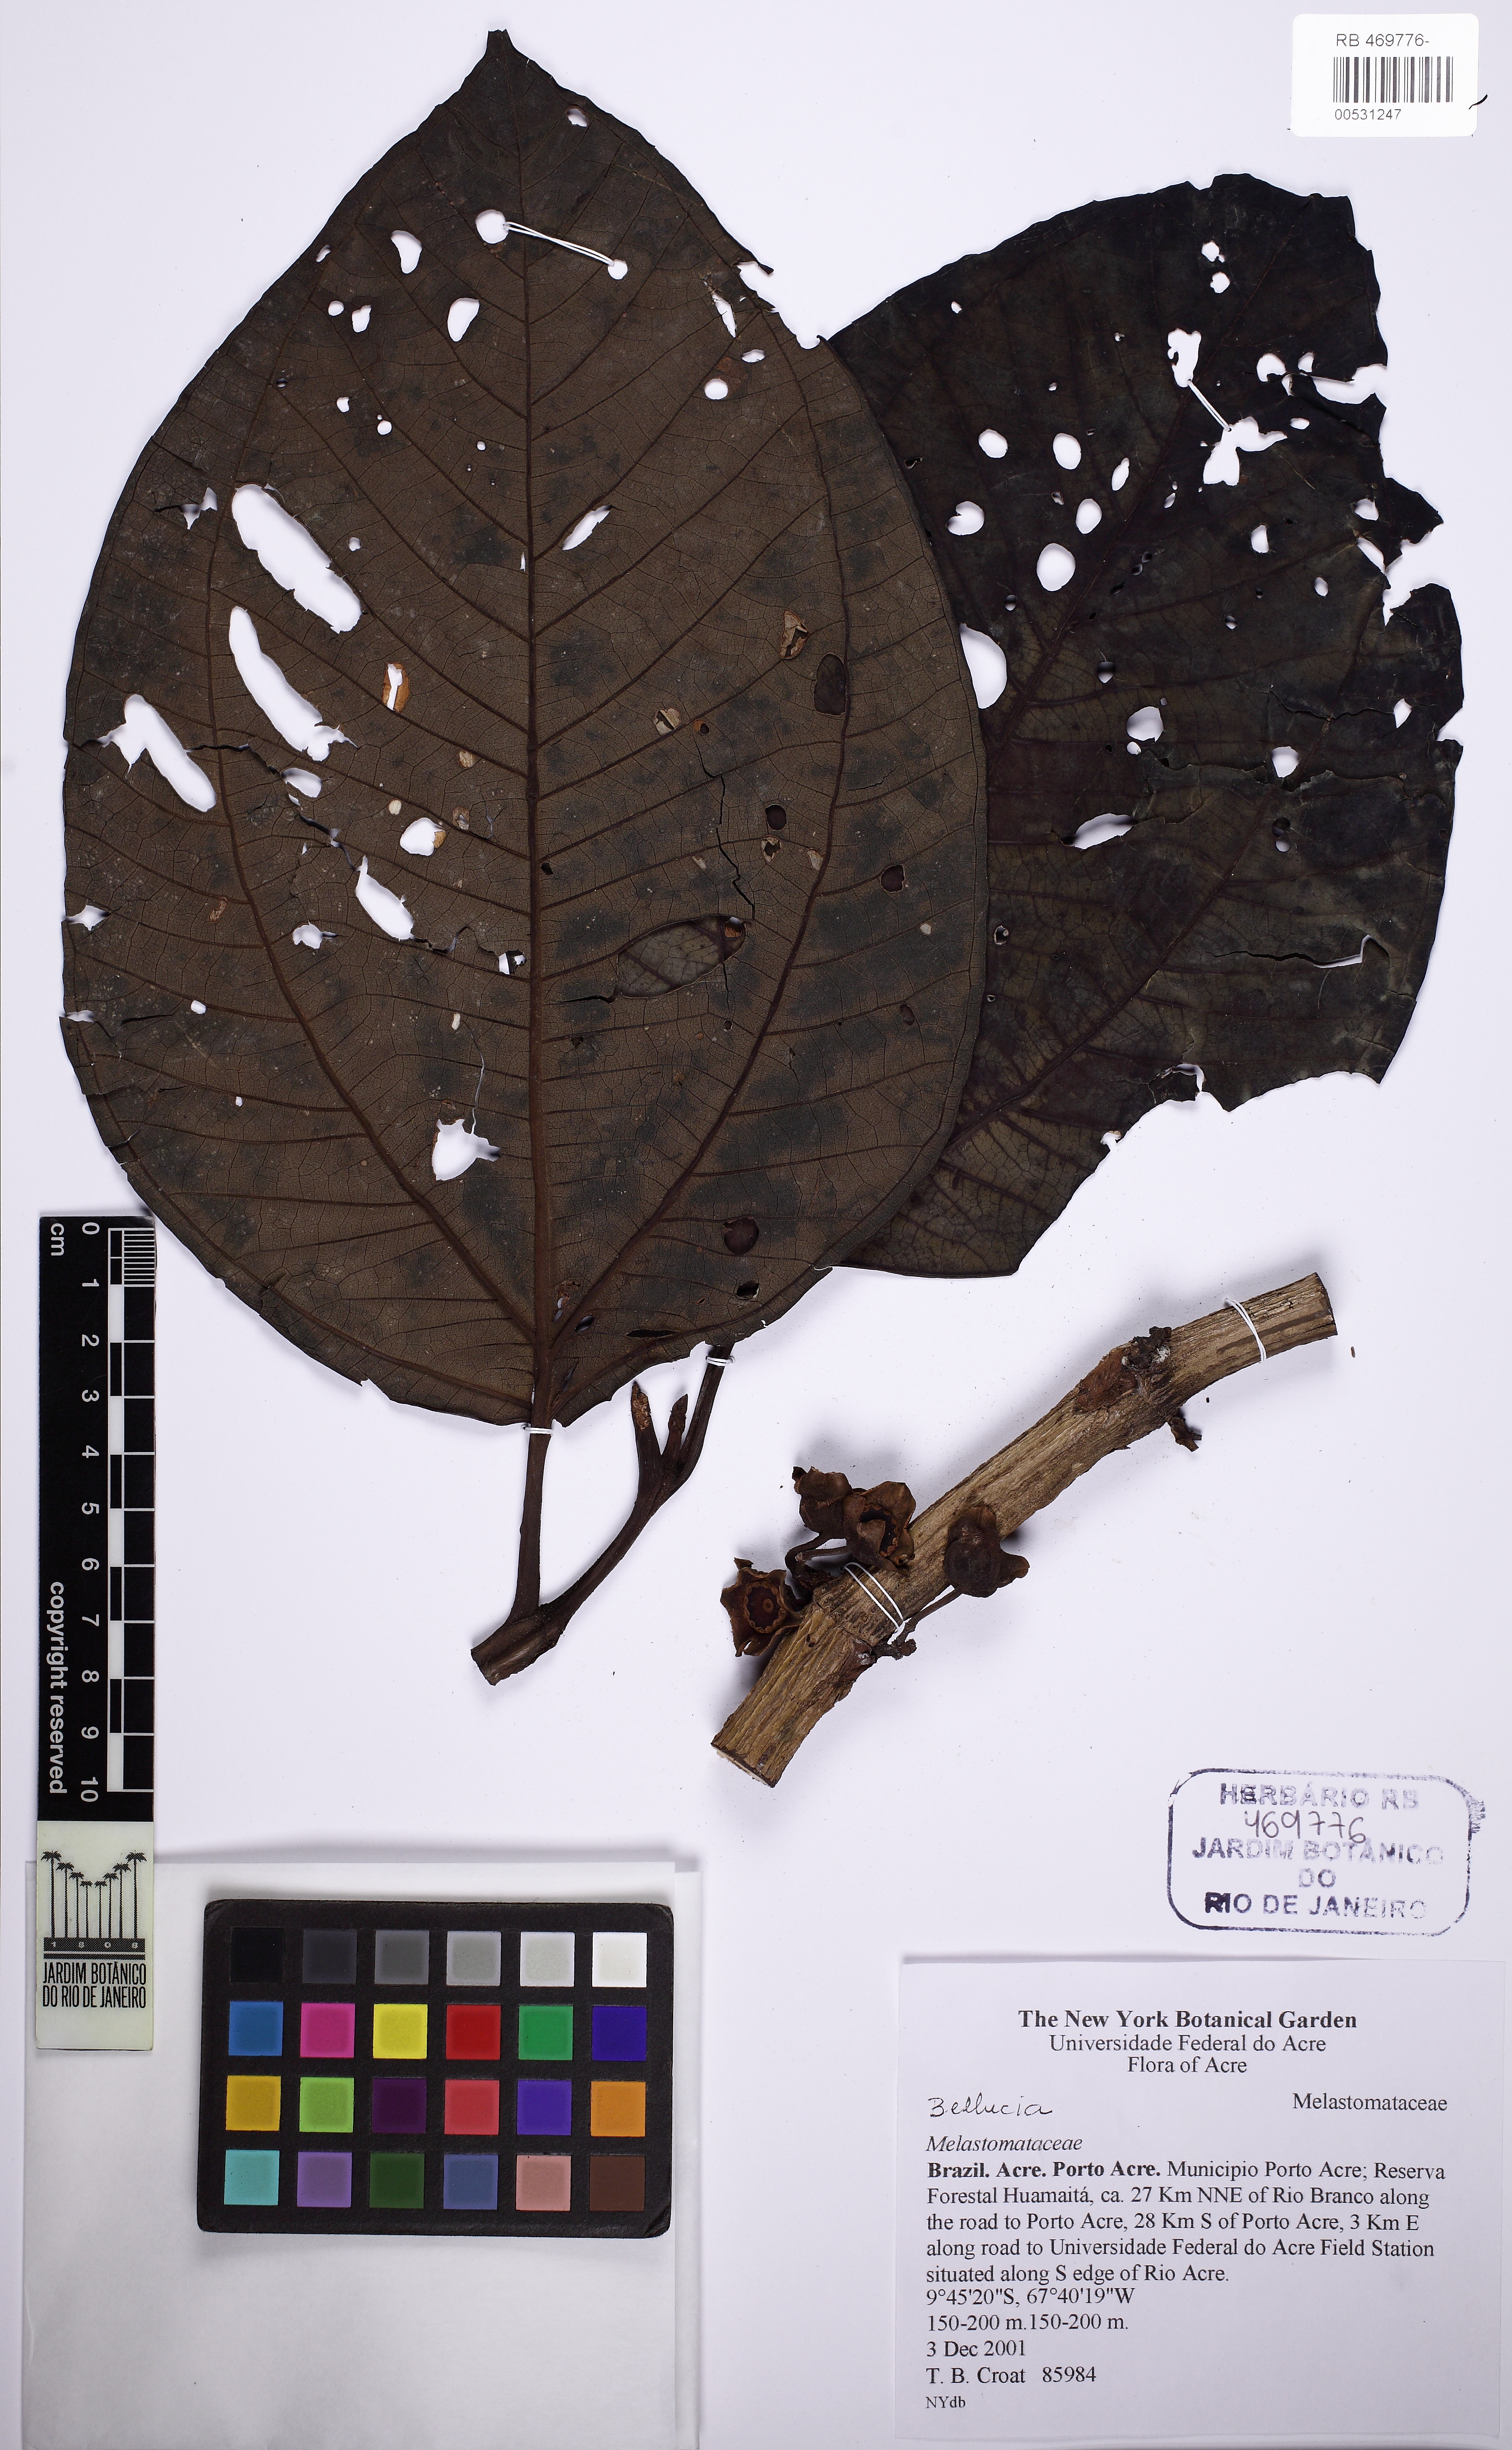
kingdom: Plantae
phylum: Tracheophyta
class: Magnoliopsida
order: Myrtales
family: Melastomataceae
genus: Bellucia
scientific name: Bellucia
